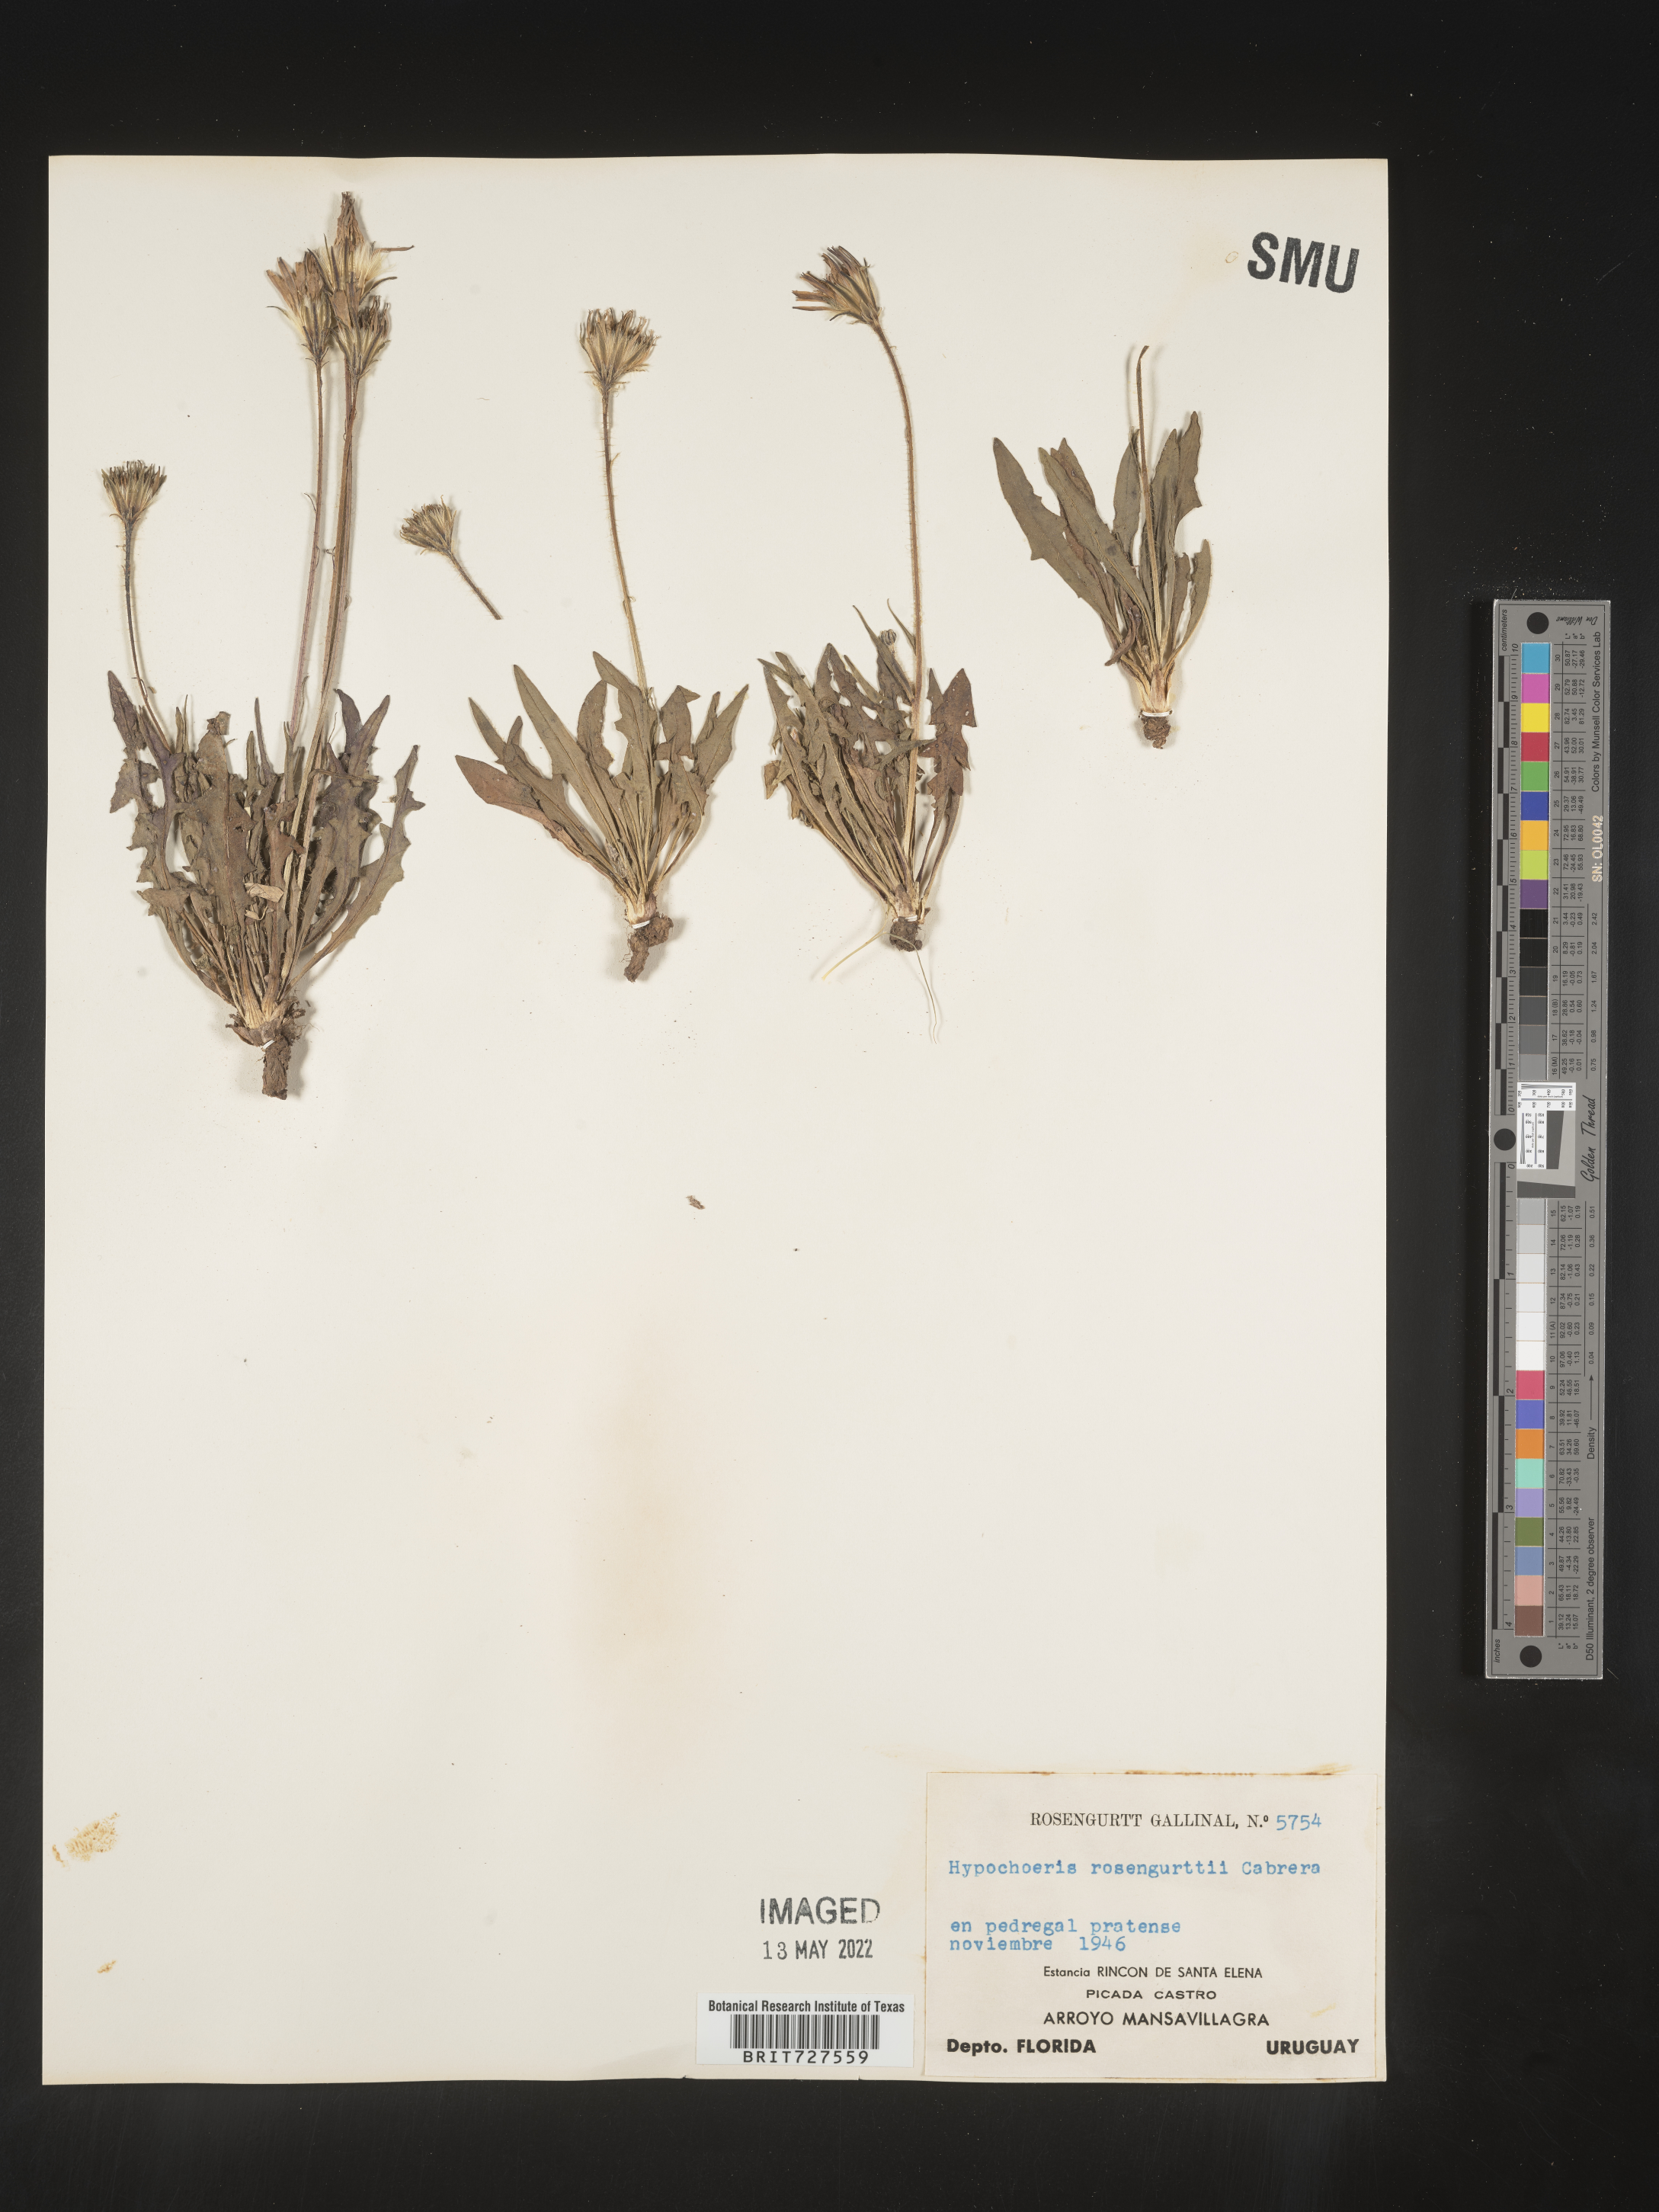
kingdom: Plantae
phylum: Tracheophyta
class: Magnoliopsida
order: Asterales
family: Asteraceae
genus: Hypochaeris
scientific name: Hypochaeris
